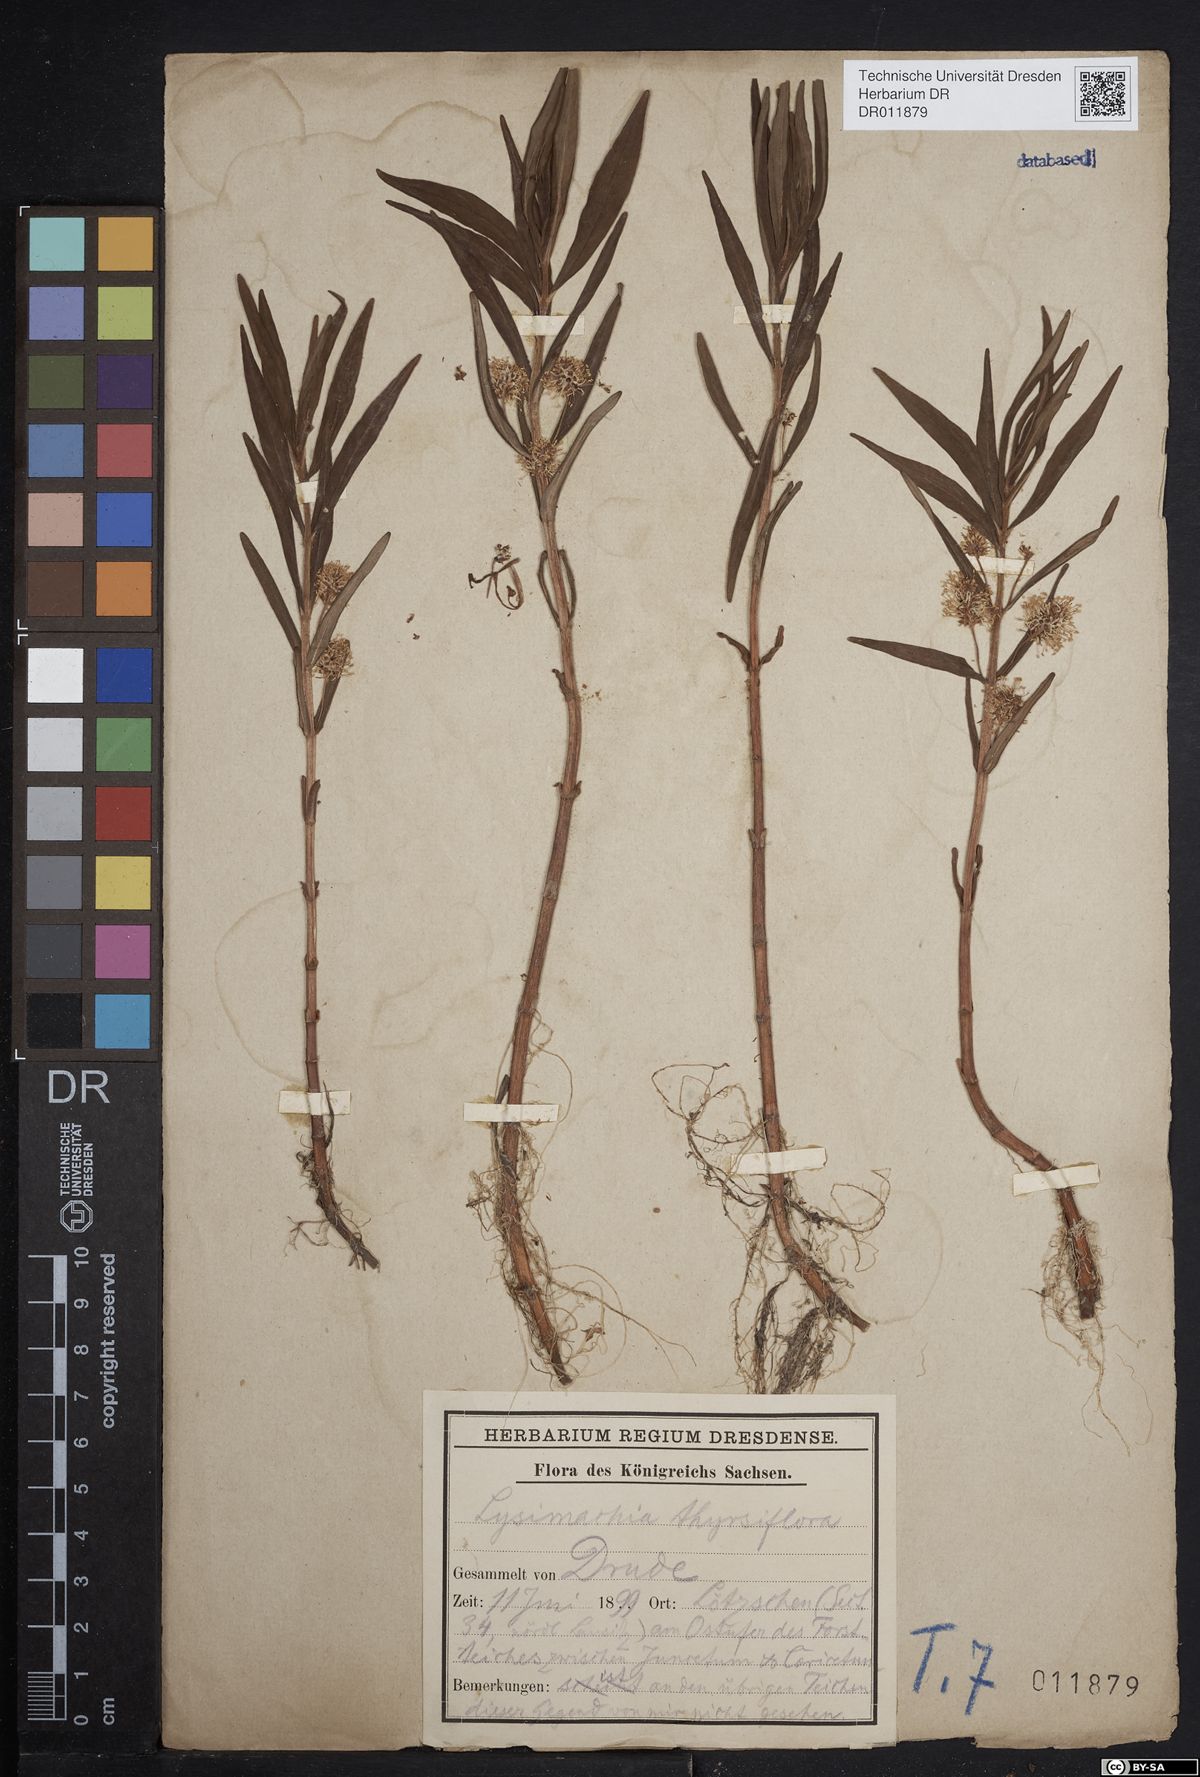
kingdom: Plantae
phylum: Tracheophyta
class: Magnoliopsida
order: Ericales
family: Primulaceae
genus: Lysimachia
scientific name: Lysimachia thyrsiflora
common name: Tufted loosestrife
